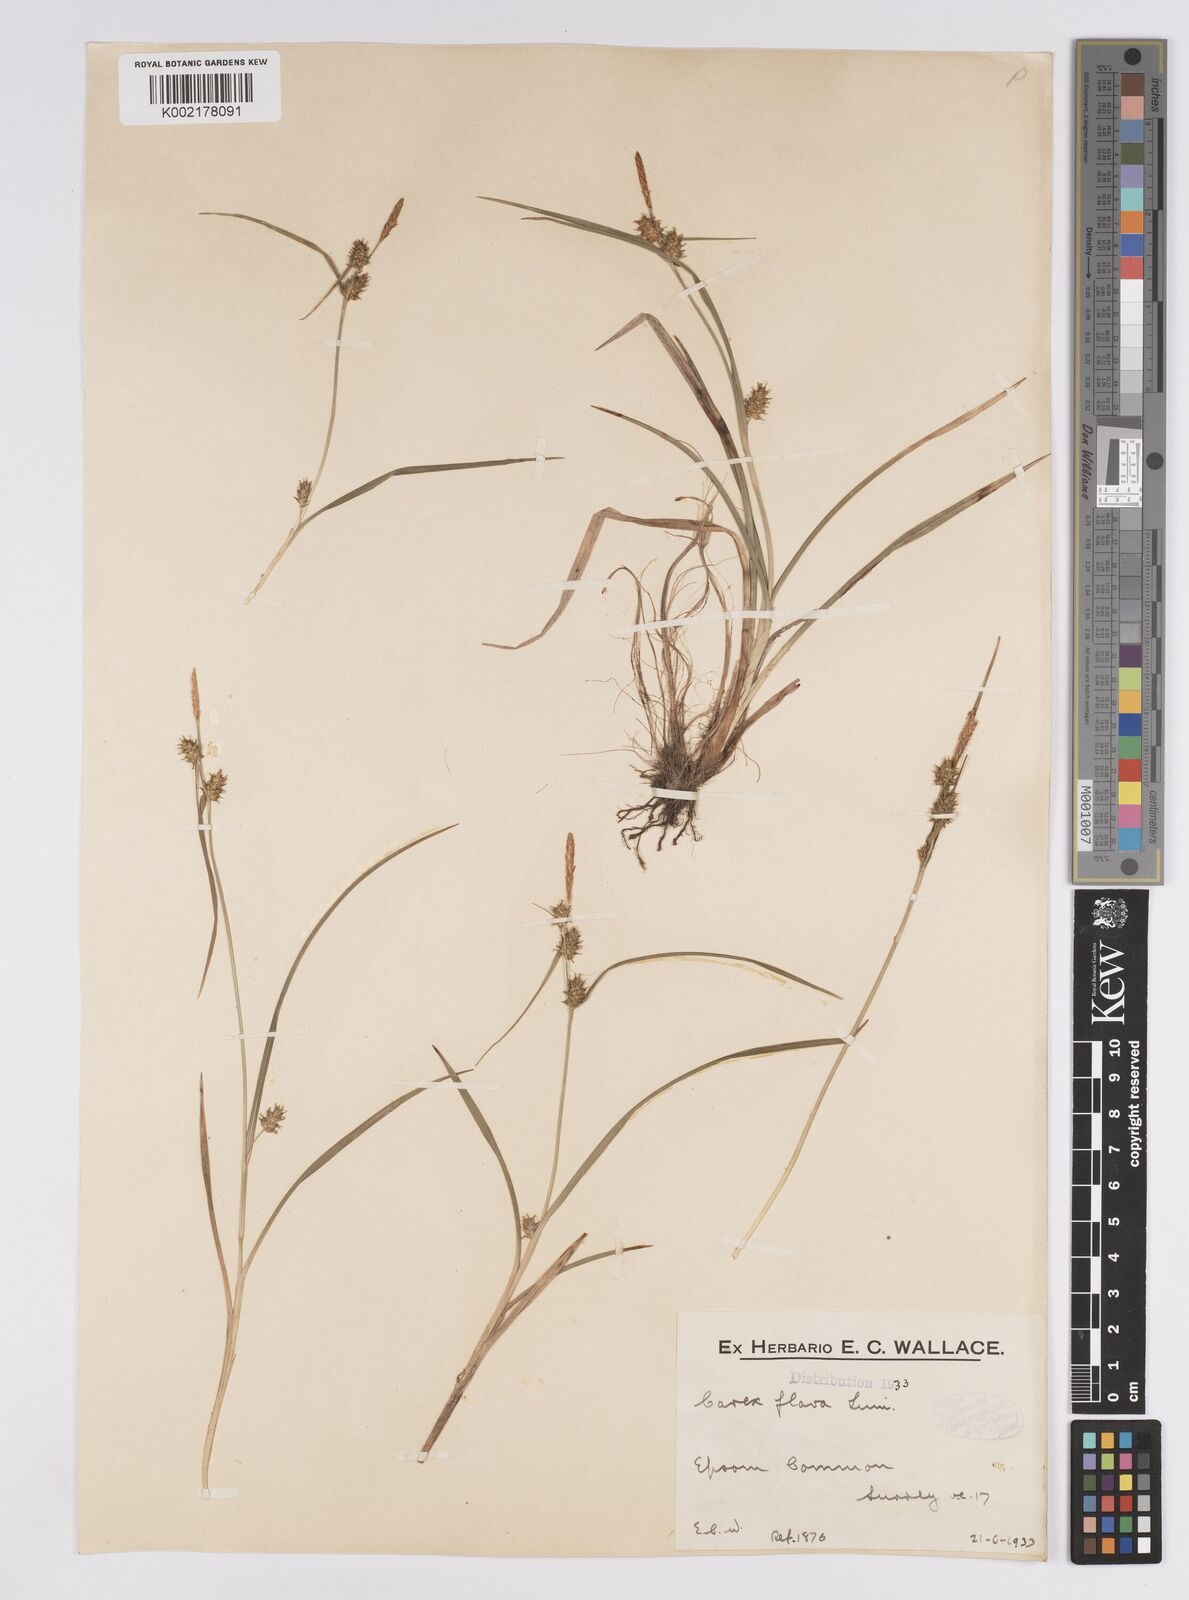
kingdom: Plantae
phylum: Tracheophyta
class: Liliopsida
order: Poales
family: Cyperaceae
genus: Carex
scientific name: Carex demissa
